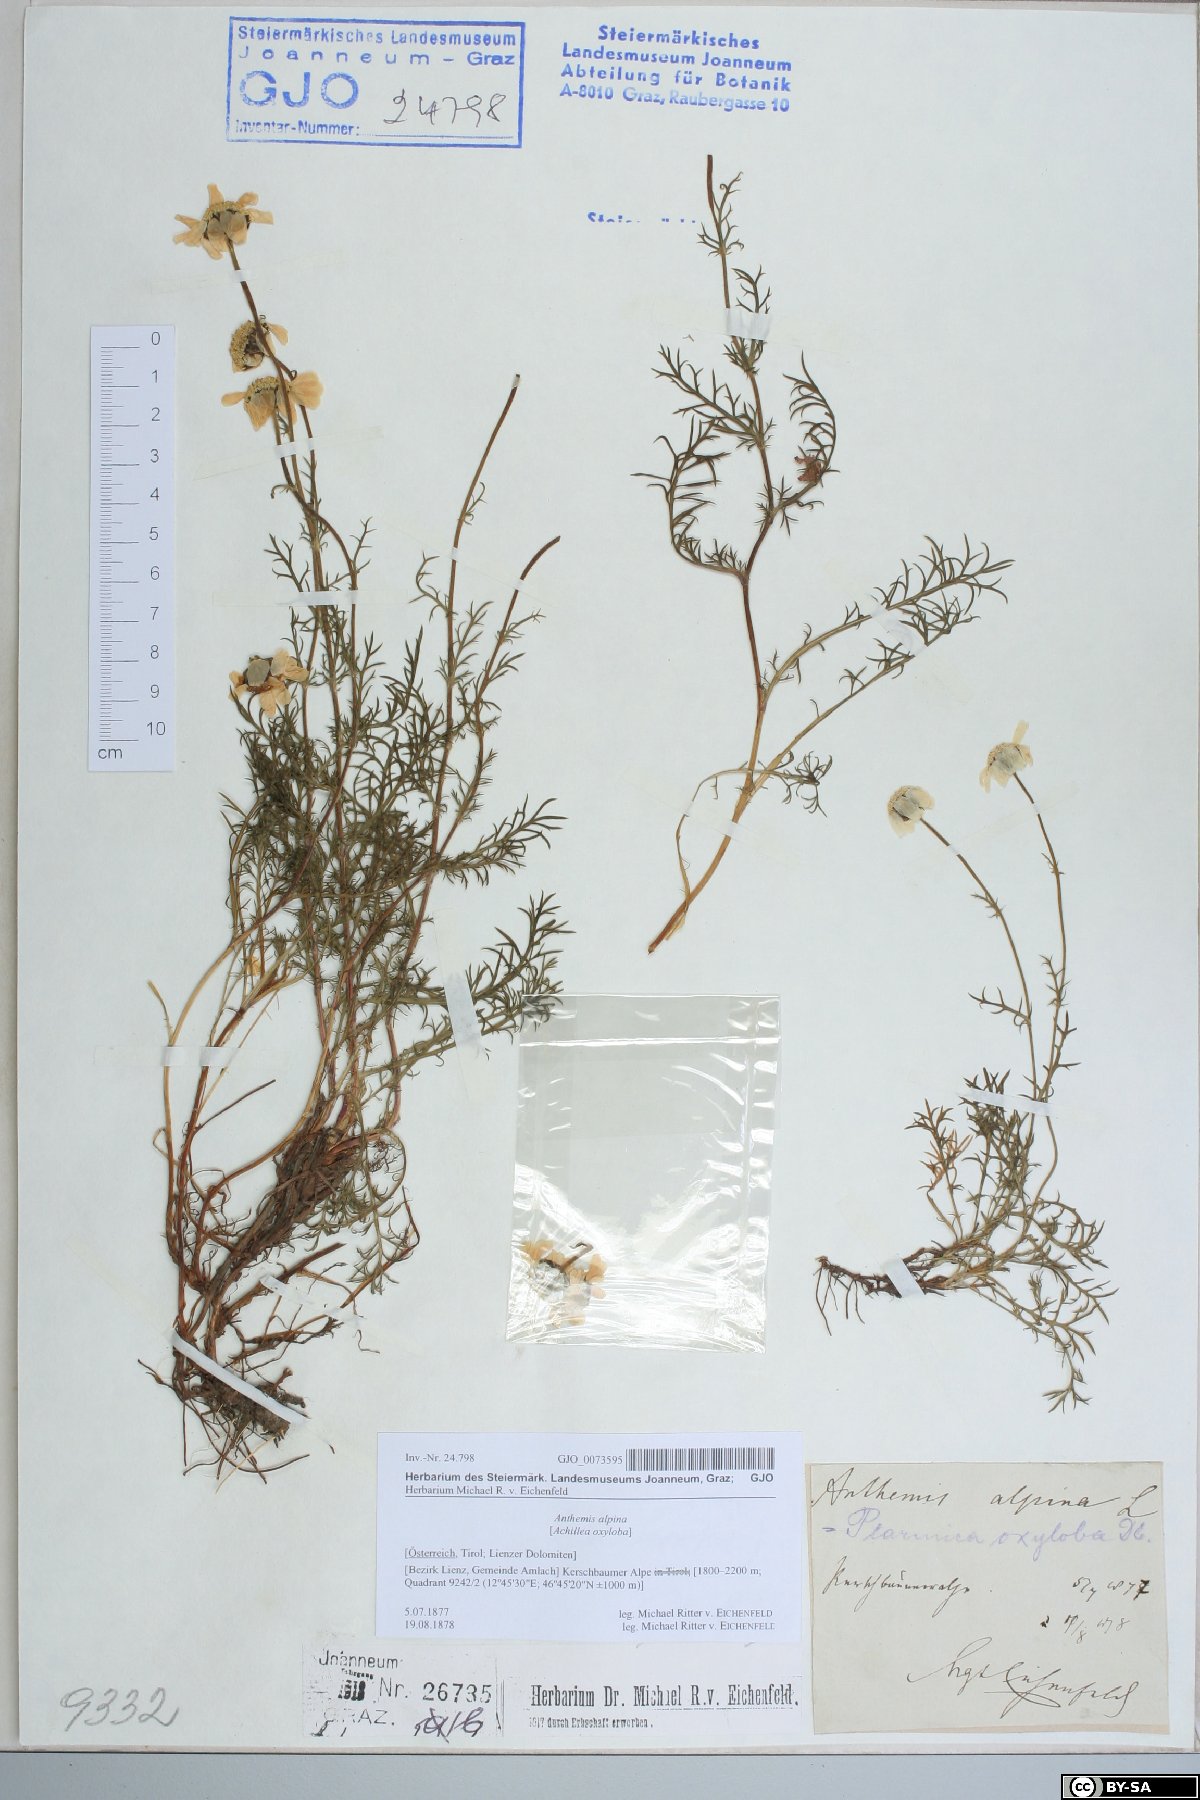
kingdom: Plantae
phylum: Tracheophyta
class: Magnoliopsida
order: Asterales
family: Asteraceae
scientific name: Asteraceae
